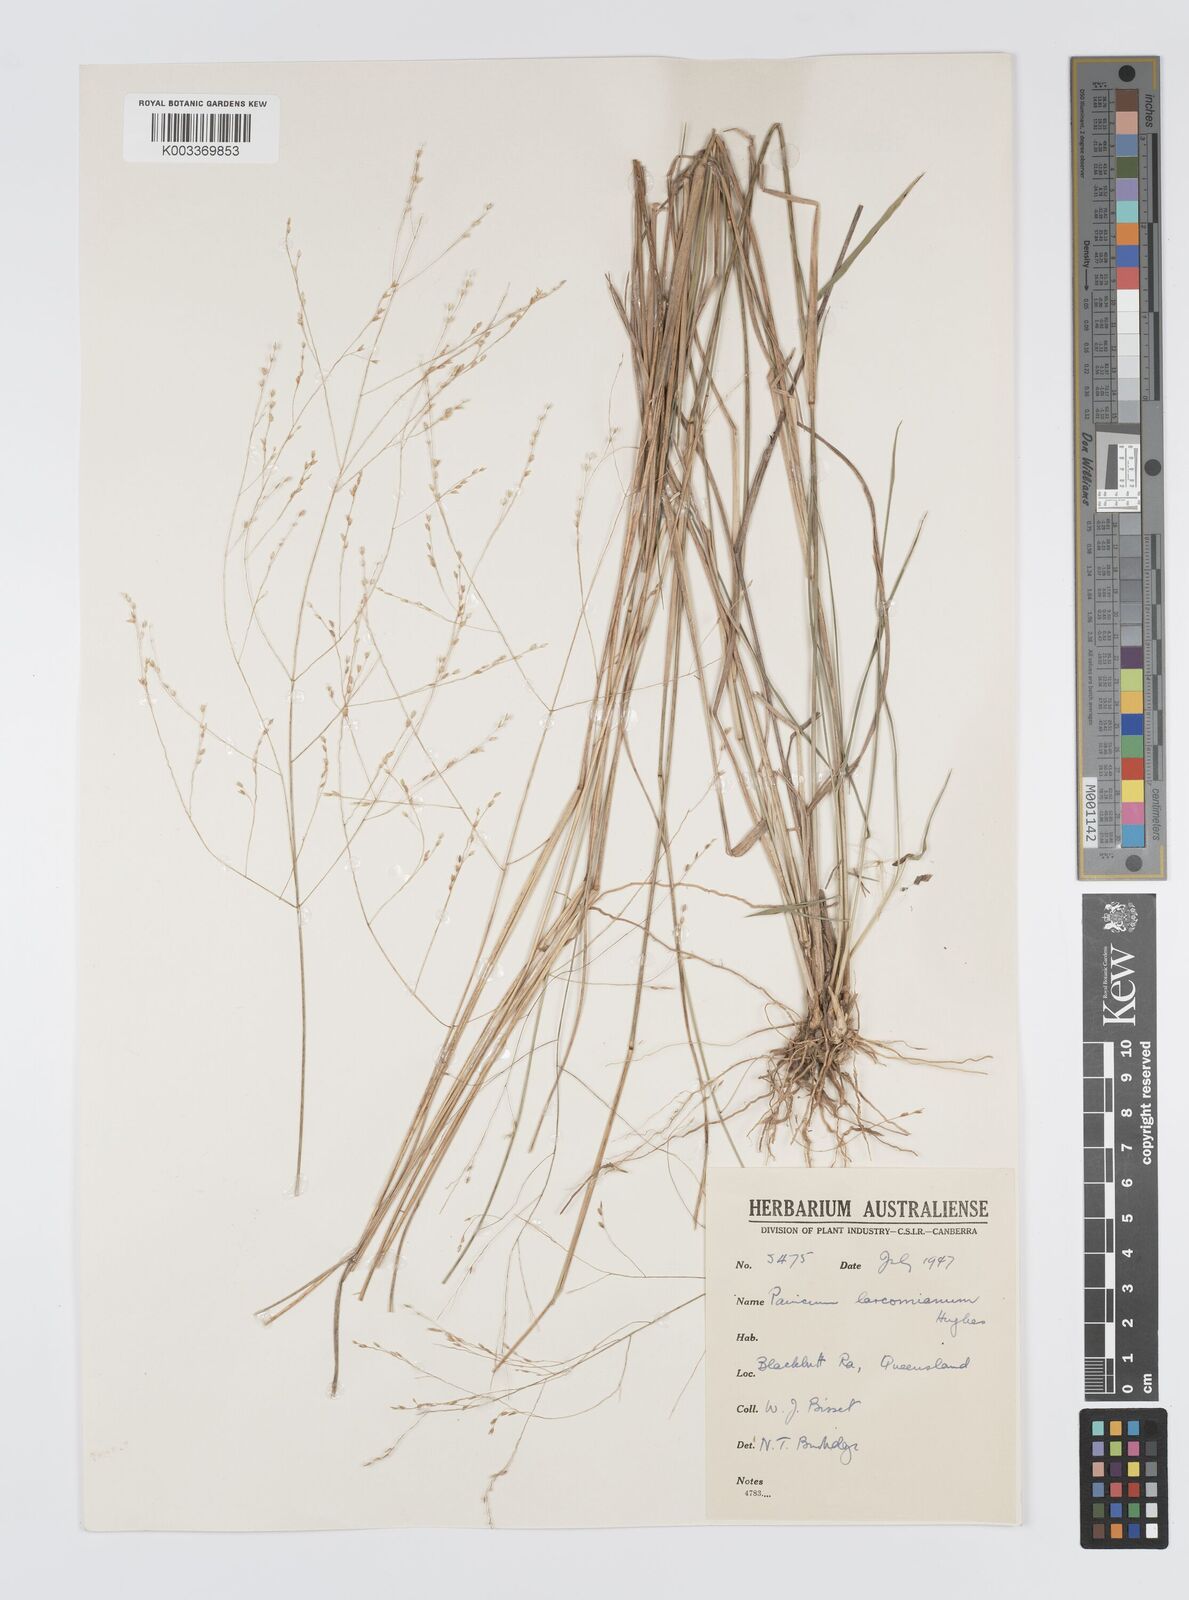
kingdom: Plantae
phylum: Tracheophyta
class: Liliopsida
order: Poales
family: Poaceae
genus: Panicum
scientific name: Panicum larcomianum
